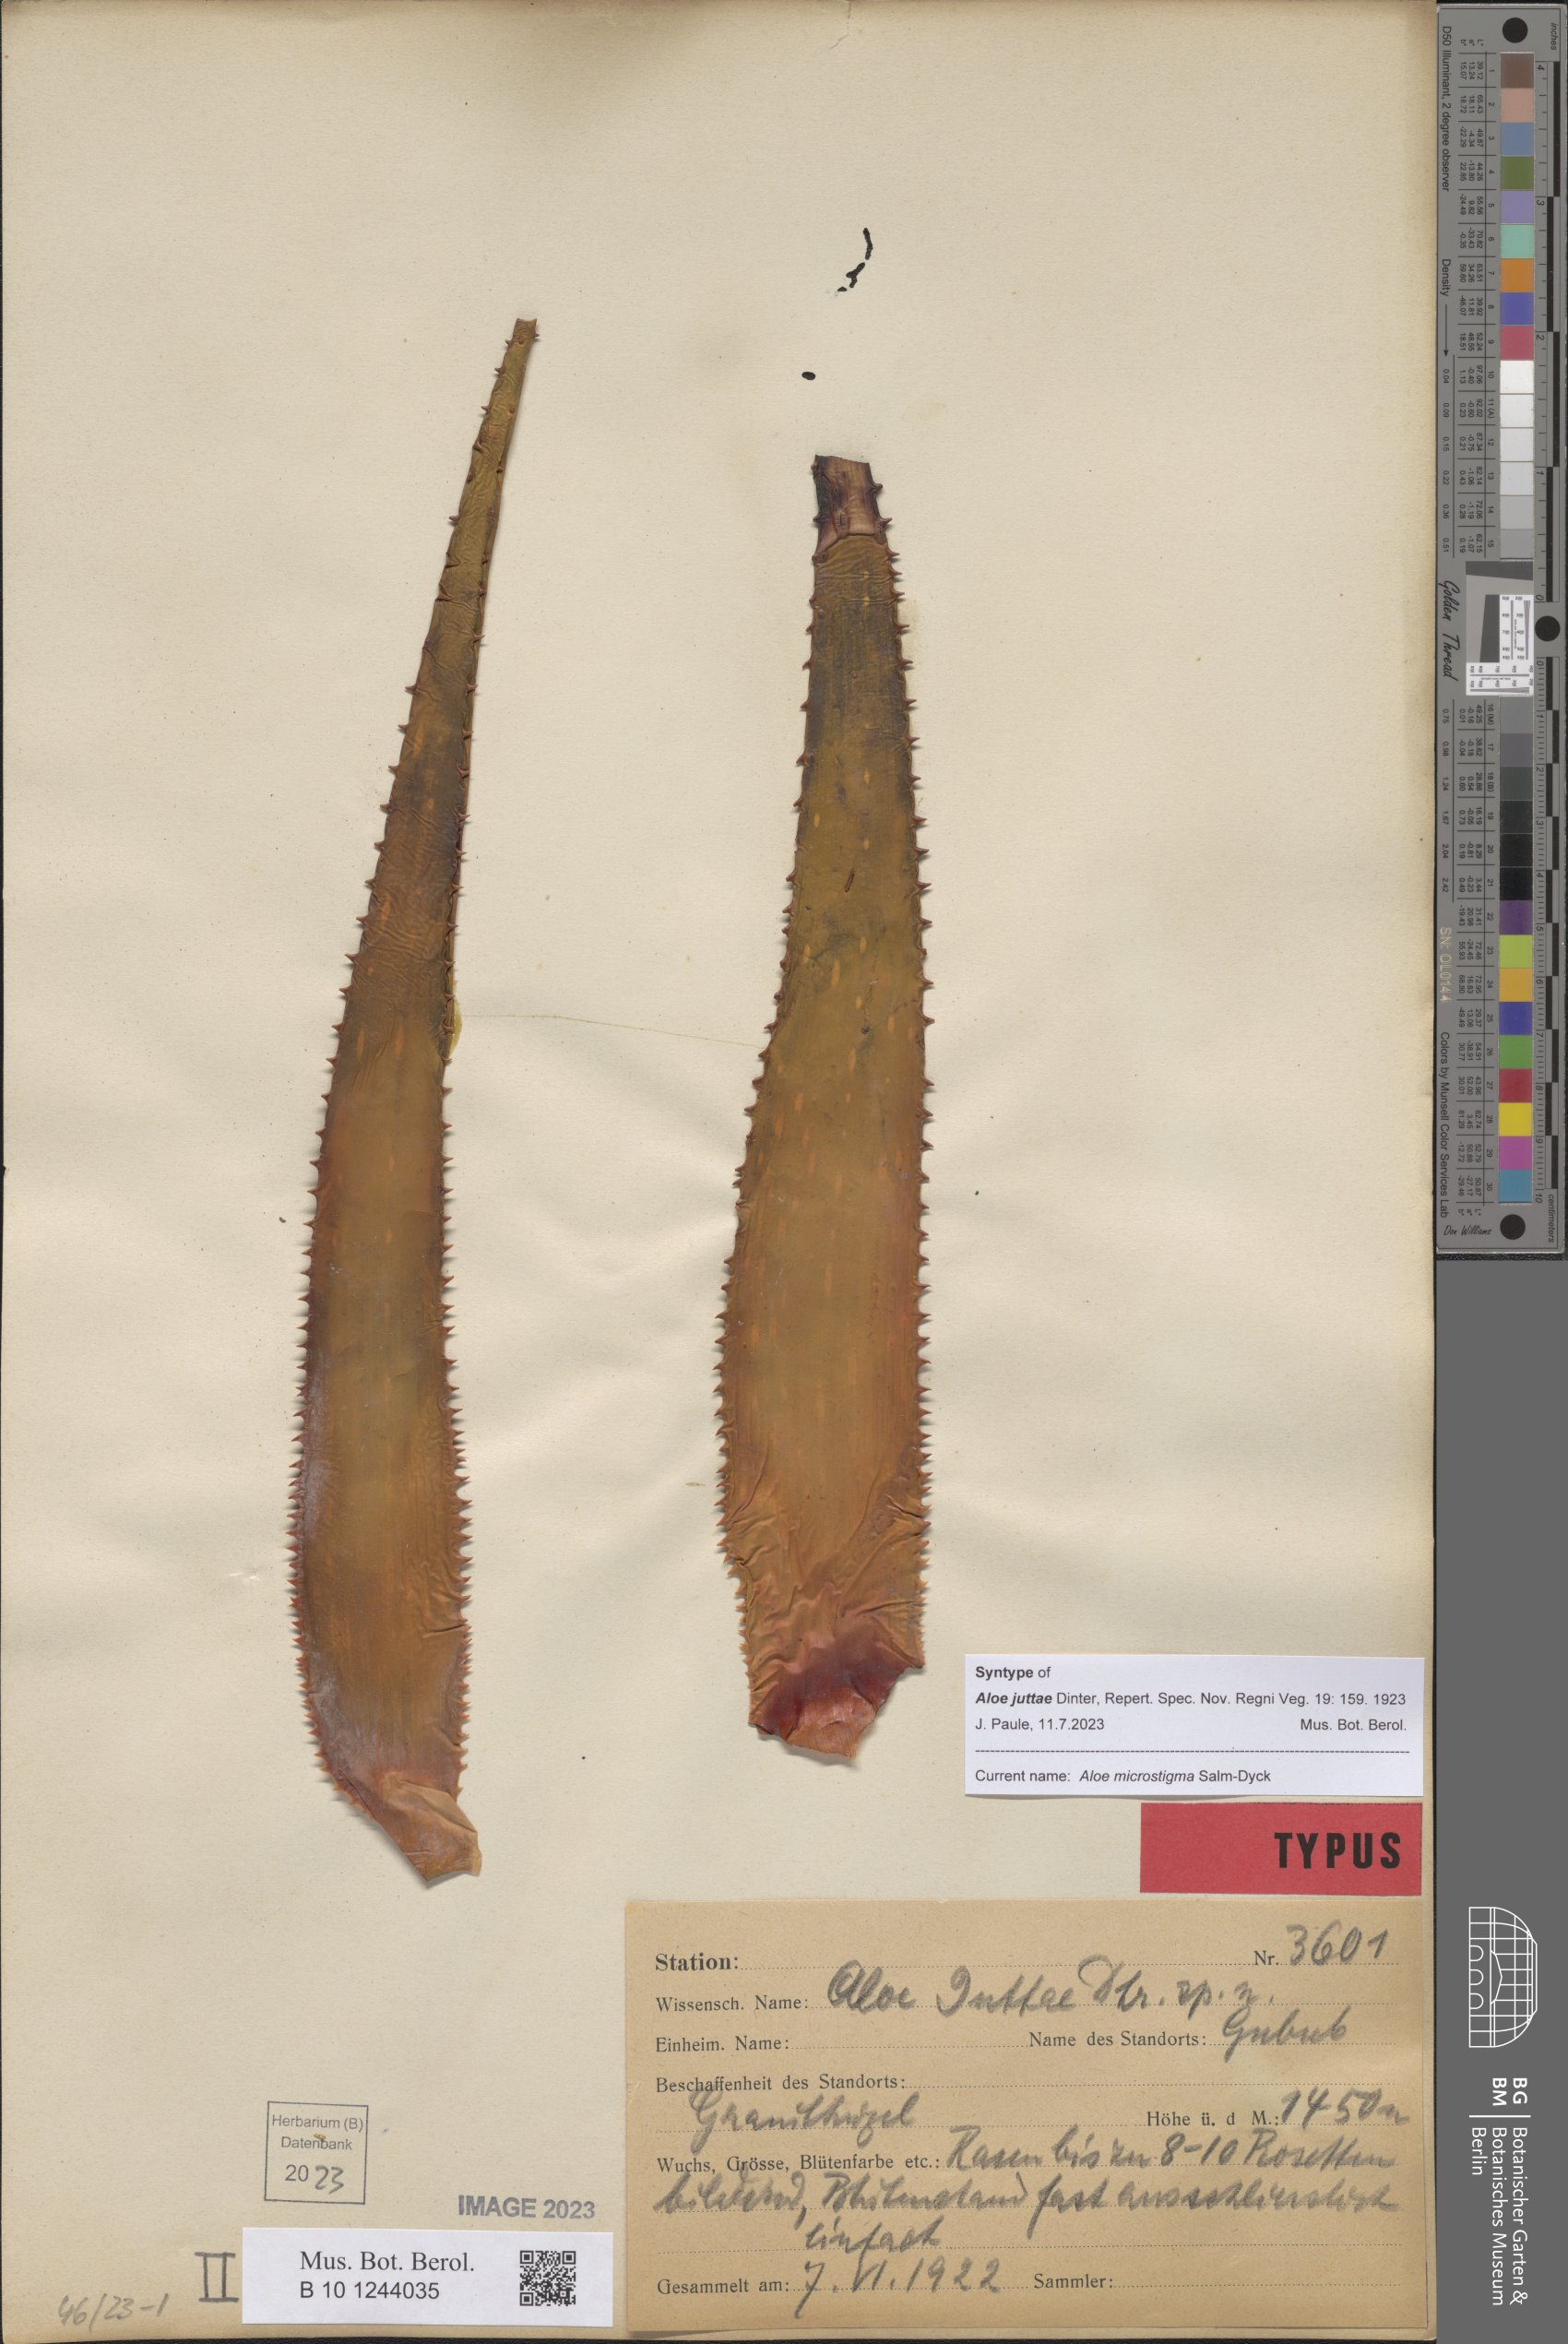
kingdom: Plantae
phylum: Tracheophyta
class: Liliopsida
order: Asparagales
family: Asphodelaceae
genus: Aloe
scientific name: Aloe microstigma
